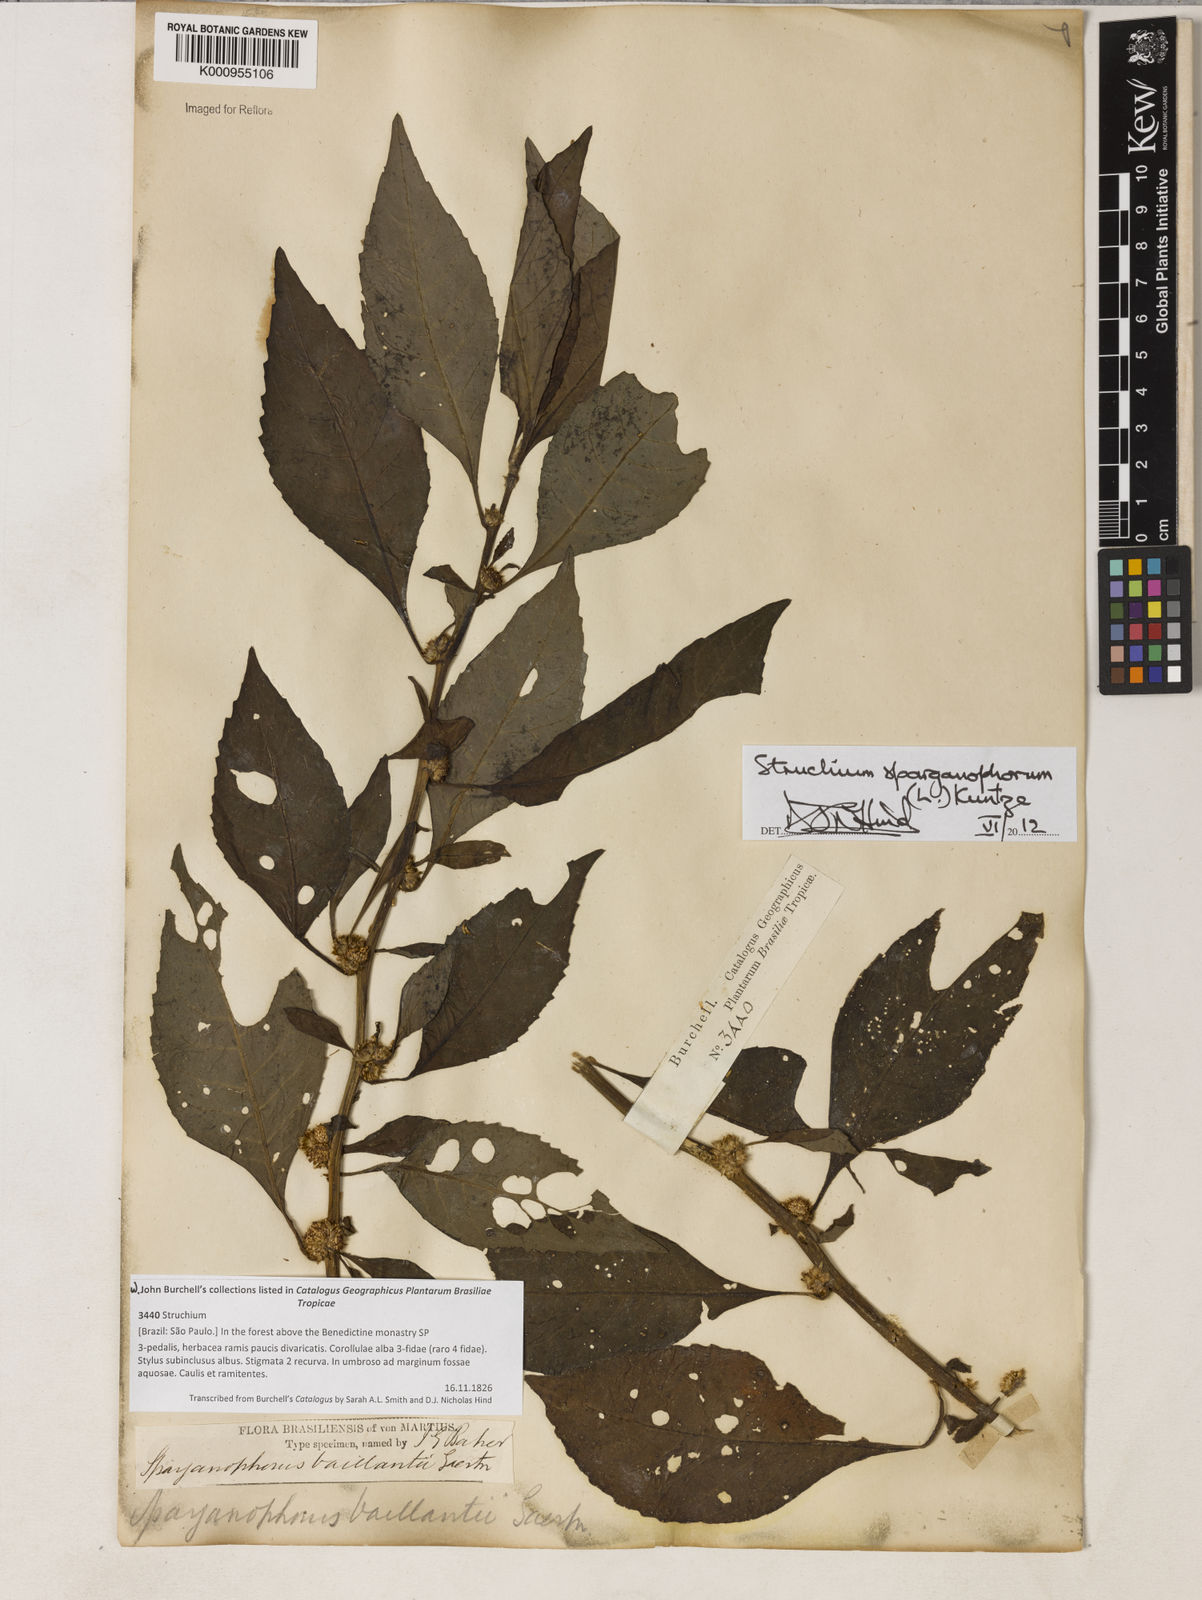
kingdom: Plantae
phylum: Tracheophyta
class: Magnoliopsida
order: Asterales
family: Asteraceae
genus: Struchium
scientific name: Struchium sparganophorum
